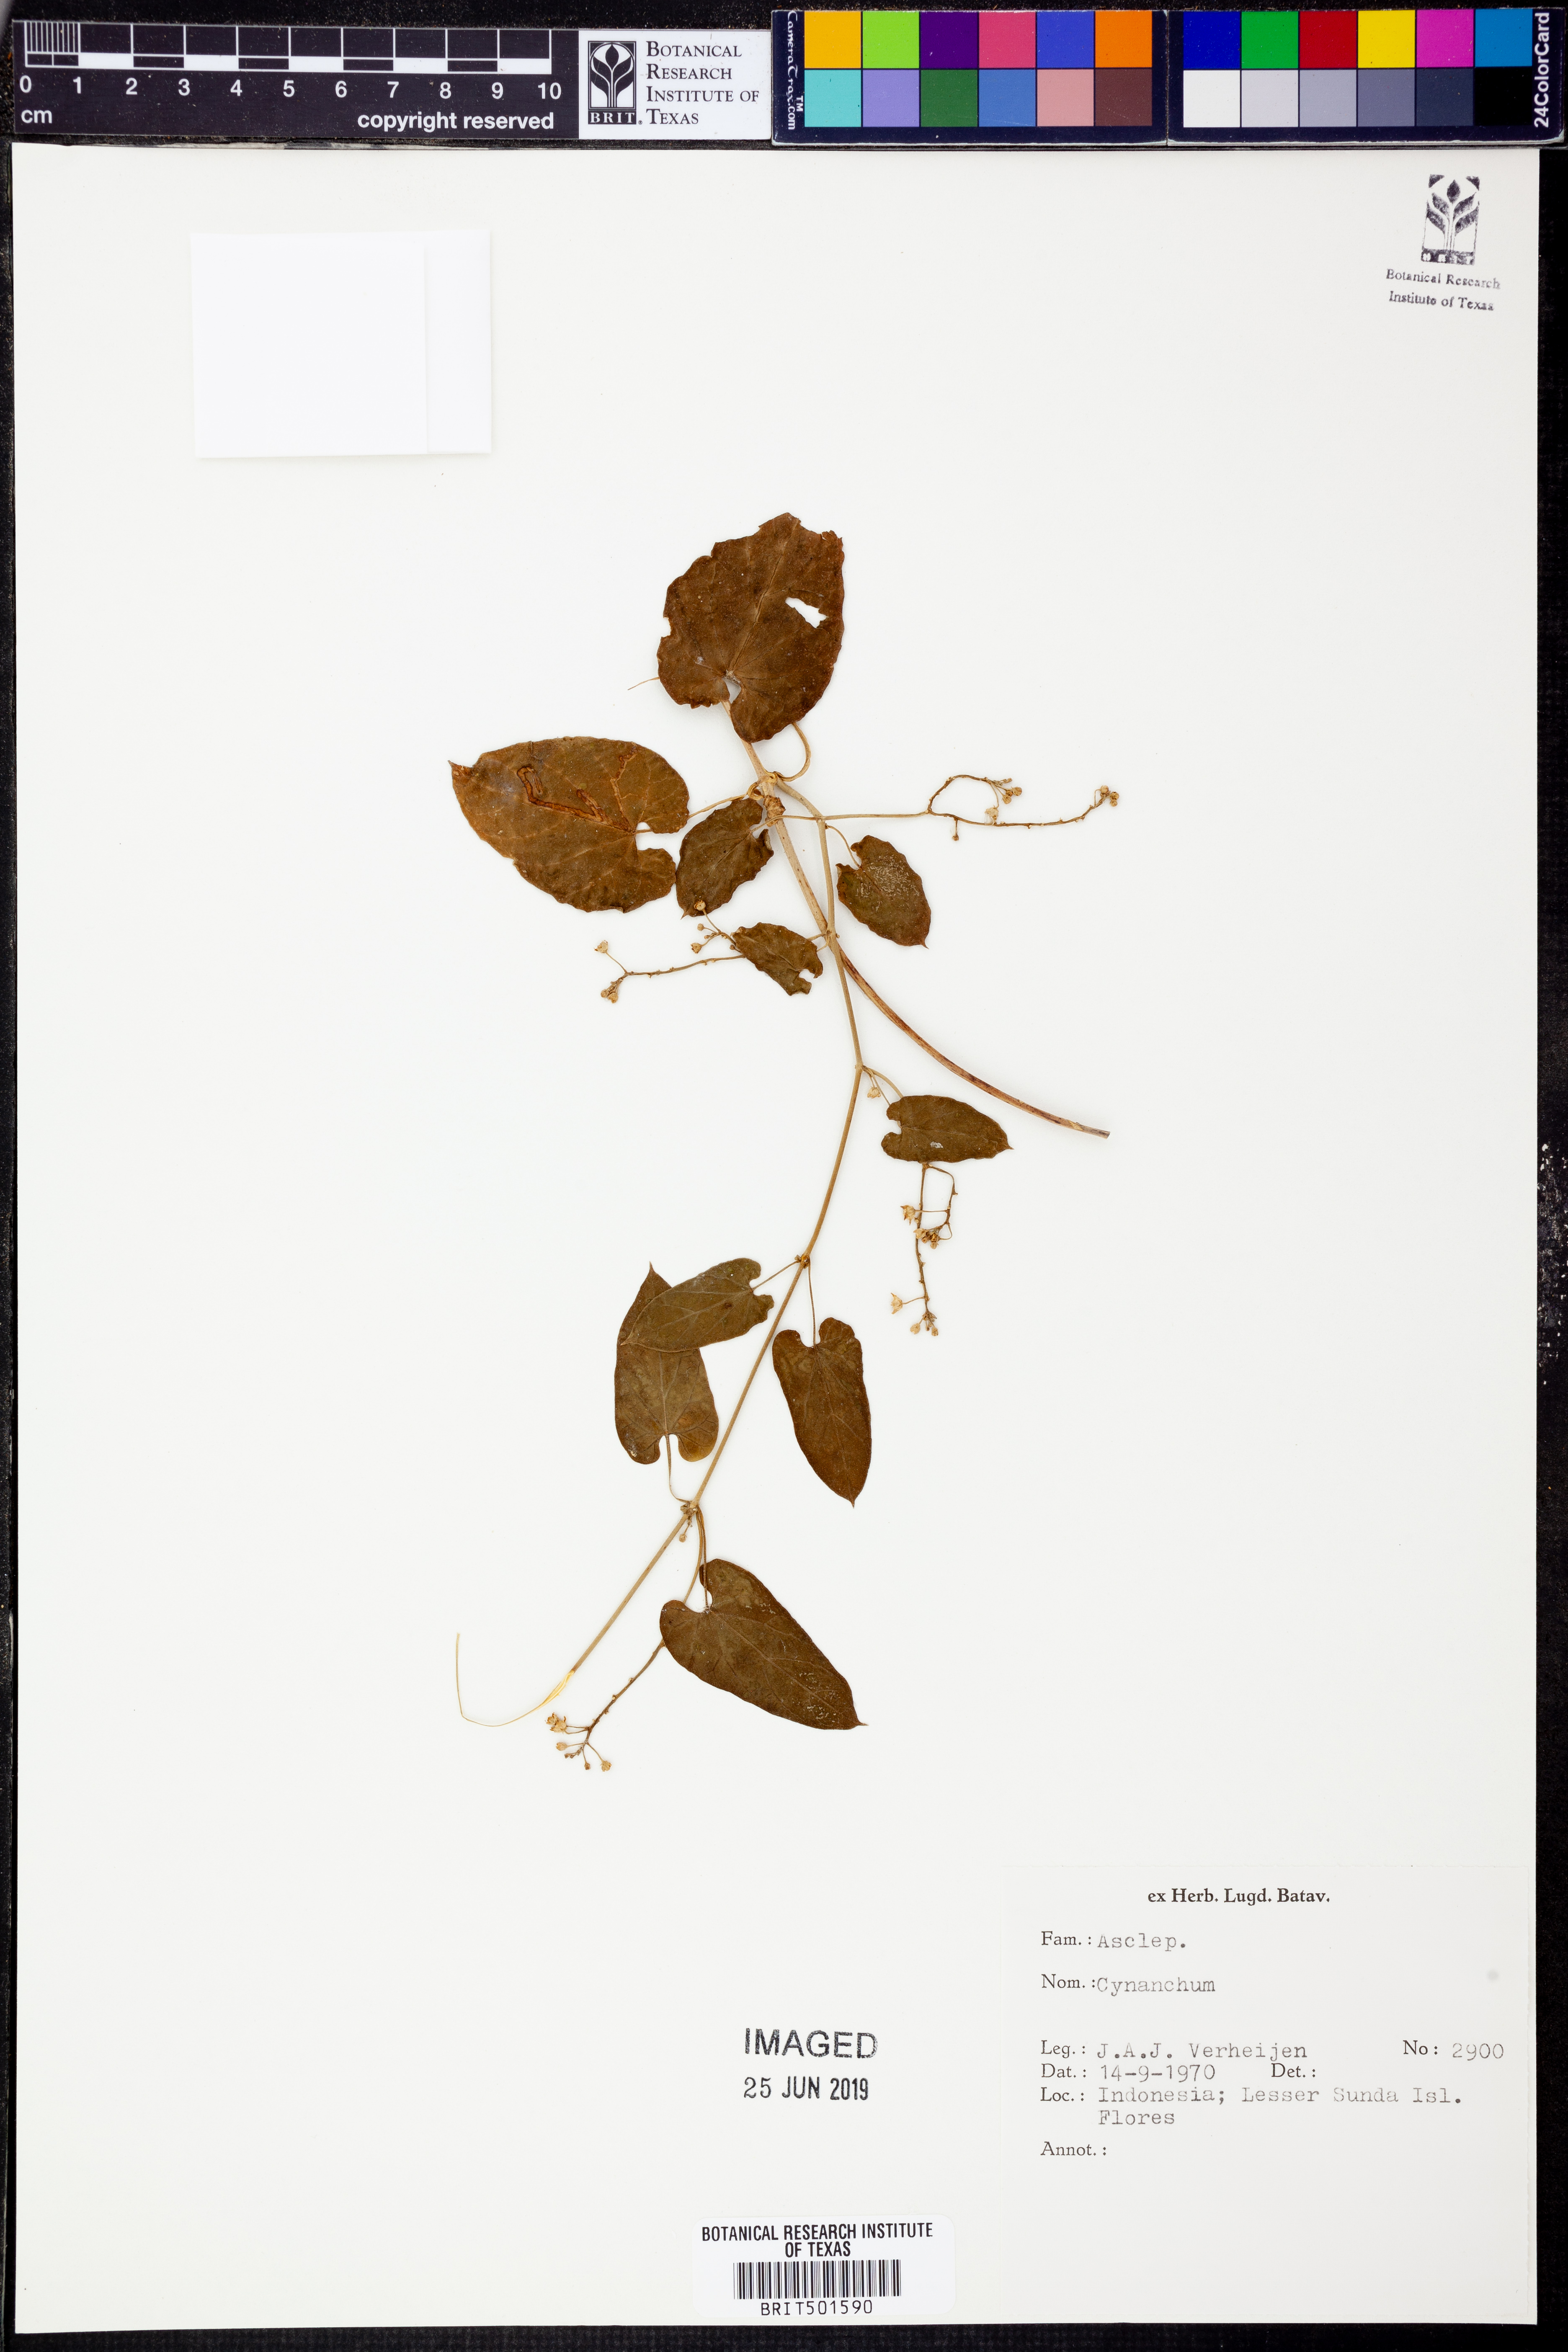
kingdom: Plantae
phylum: Tracheophyta
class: Magnoliopsida
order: Gentianales
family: Apocynaceae
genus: Cynanchum
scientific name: Cynanchum
